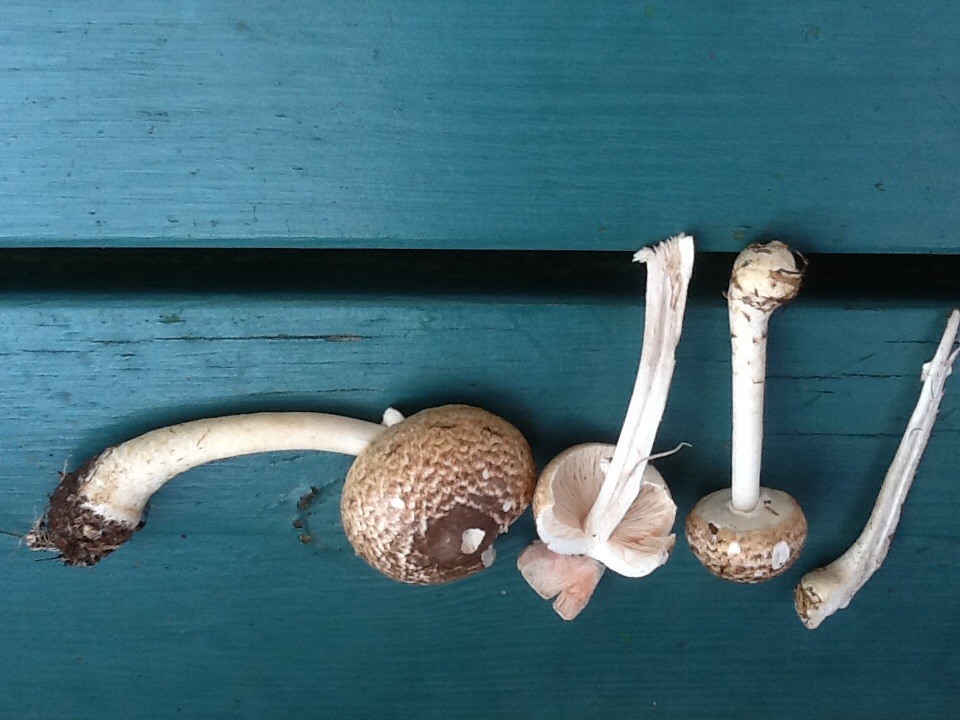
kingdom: Fungi
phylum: Basidiomycota
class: Agaricomycetes
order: Agaricales
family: Agaricaceae
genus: Agaricus
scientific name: Agaricus impudicus
